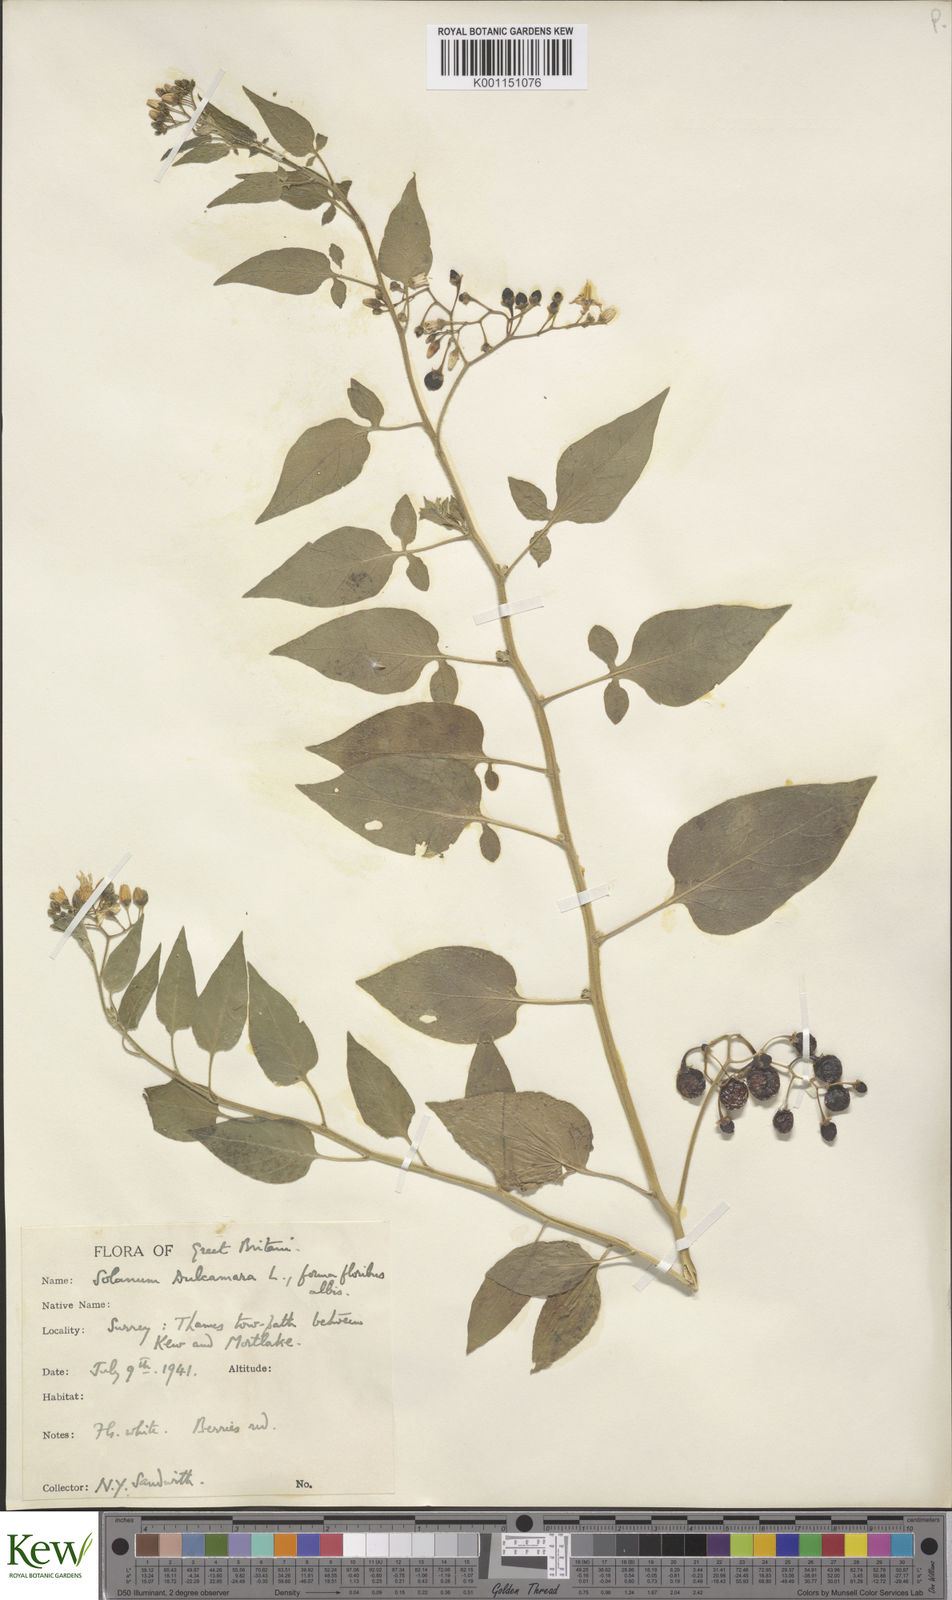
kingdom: Plantae
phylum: Tracheophyta
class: Magnoliopsida
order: Solanales
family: Solanaceae
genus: Solanum
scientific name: Solanum dulcamara
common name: Climbing nightshade
